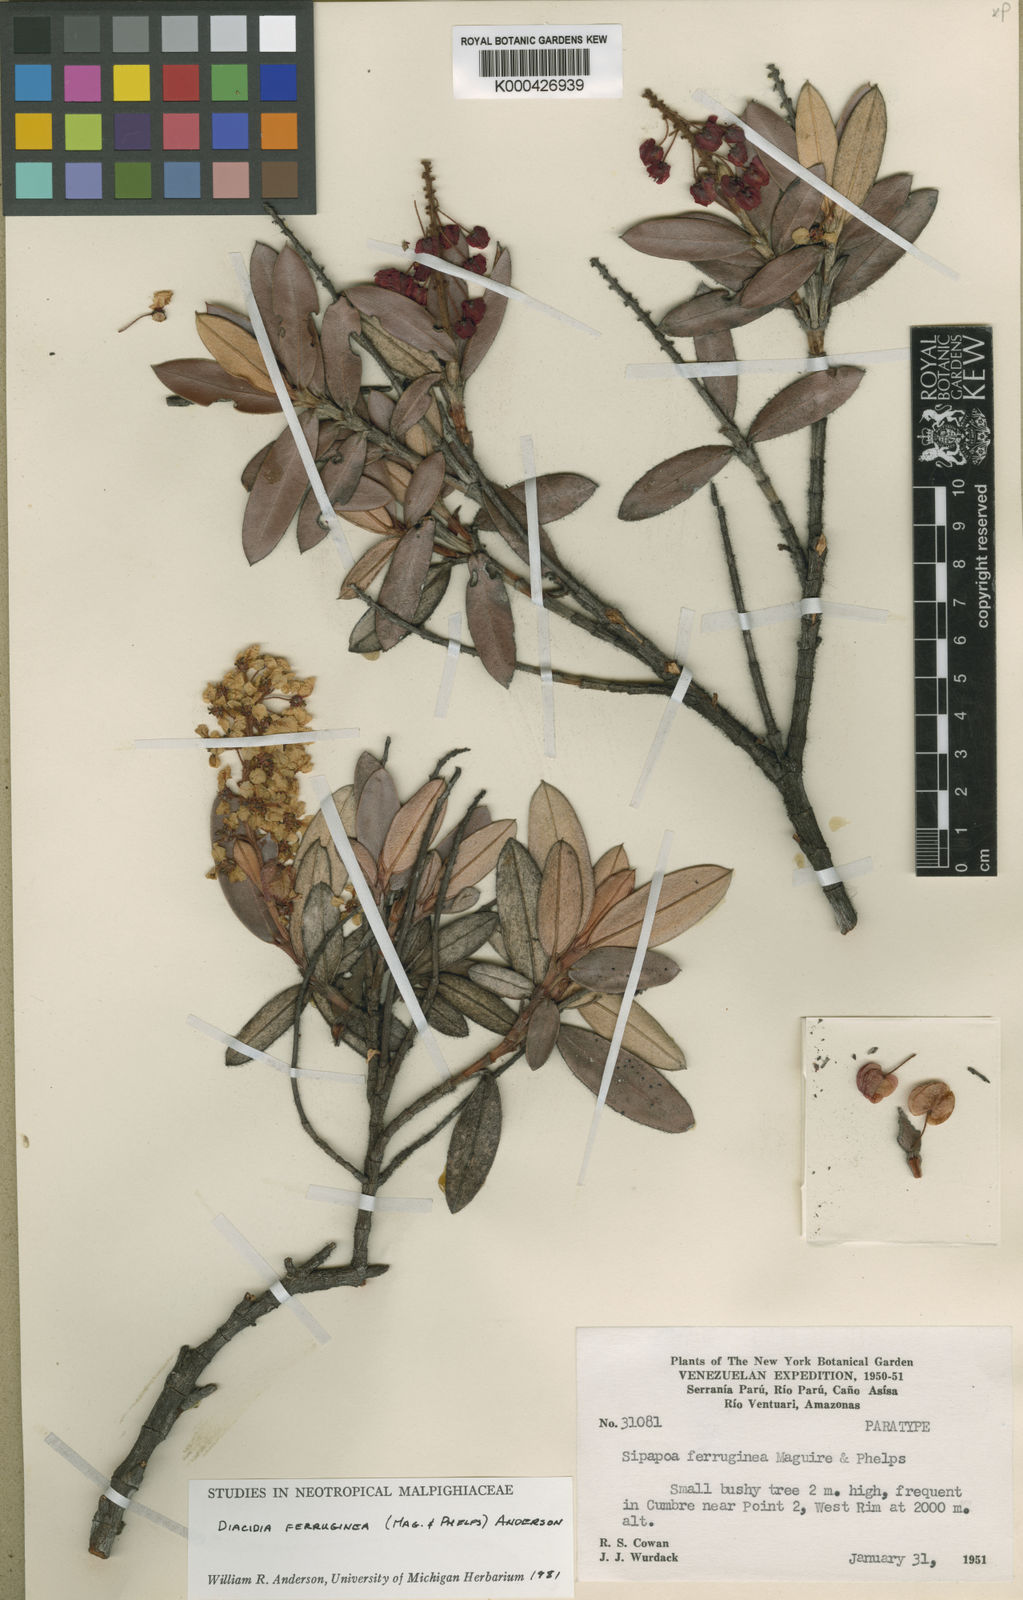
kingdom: Plantae
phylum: Tracheophyta
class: Magnoliopsida
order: Malpighiales
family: Malpighiaceae
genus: Diacidia
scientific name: Diacidia ferruginea
